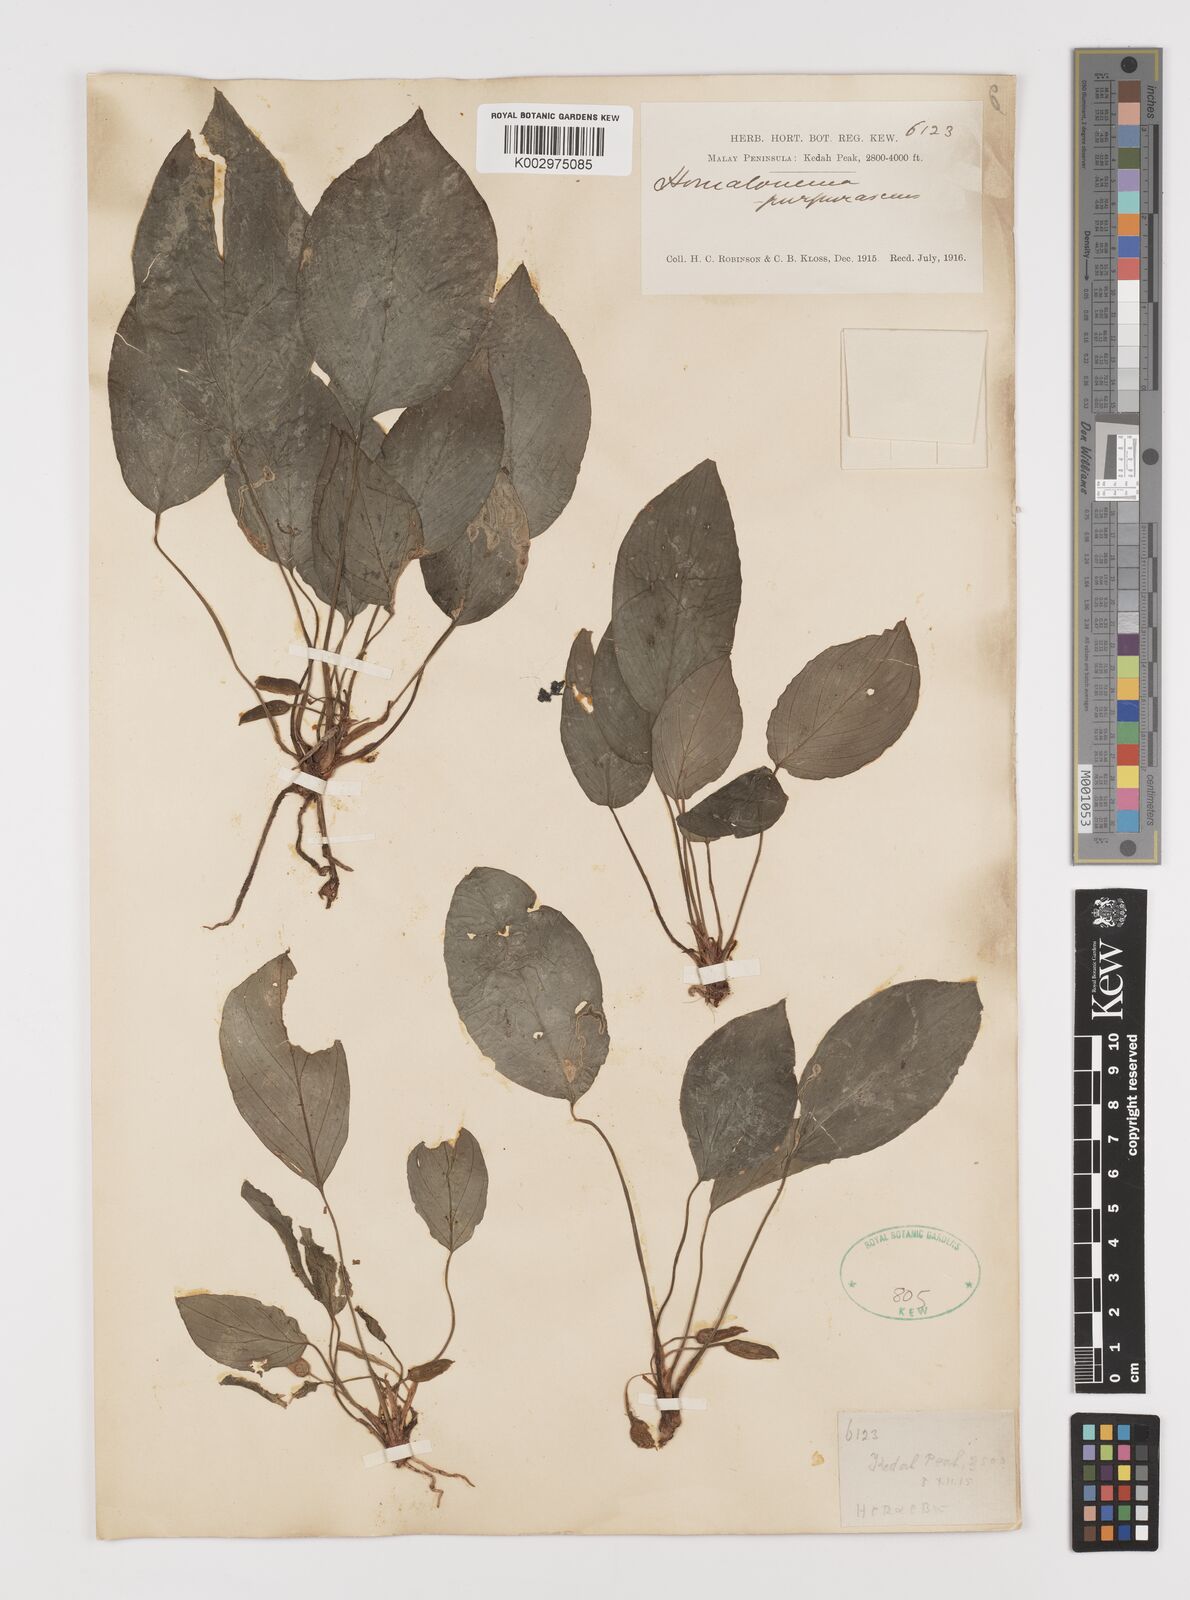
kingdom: Plantae
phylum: Tracheophyta
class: Liliopsida
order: Alismatales
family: Araceae
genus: Homalomena
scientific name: Homalomena humilis
